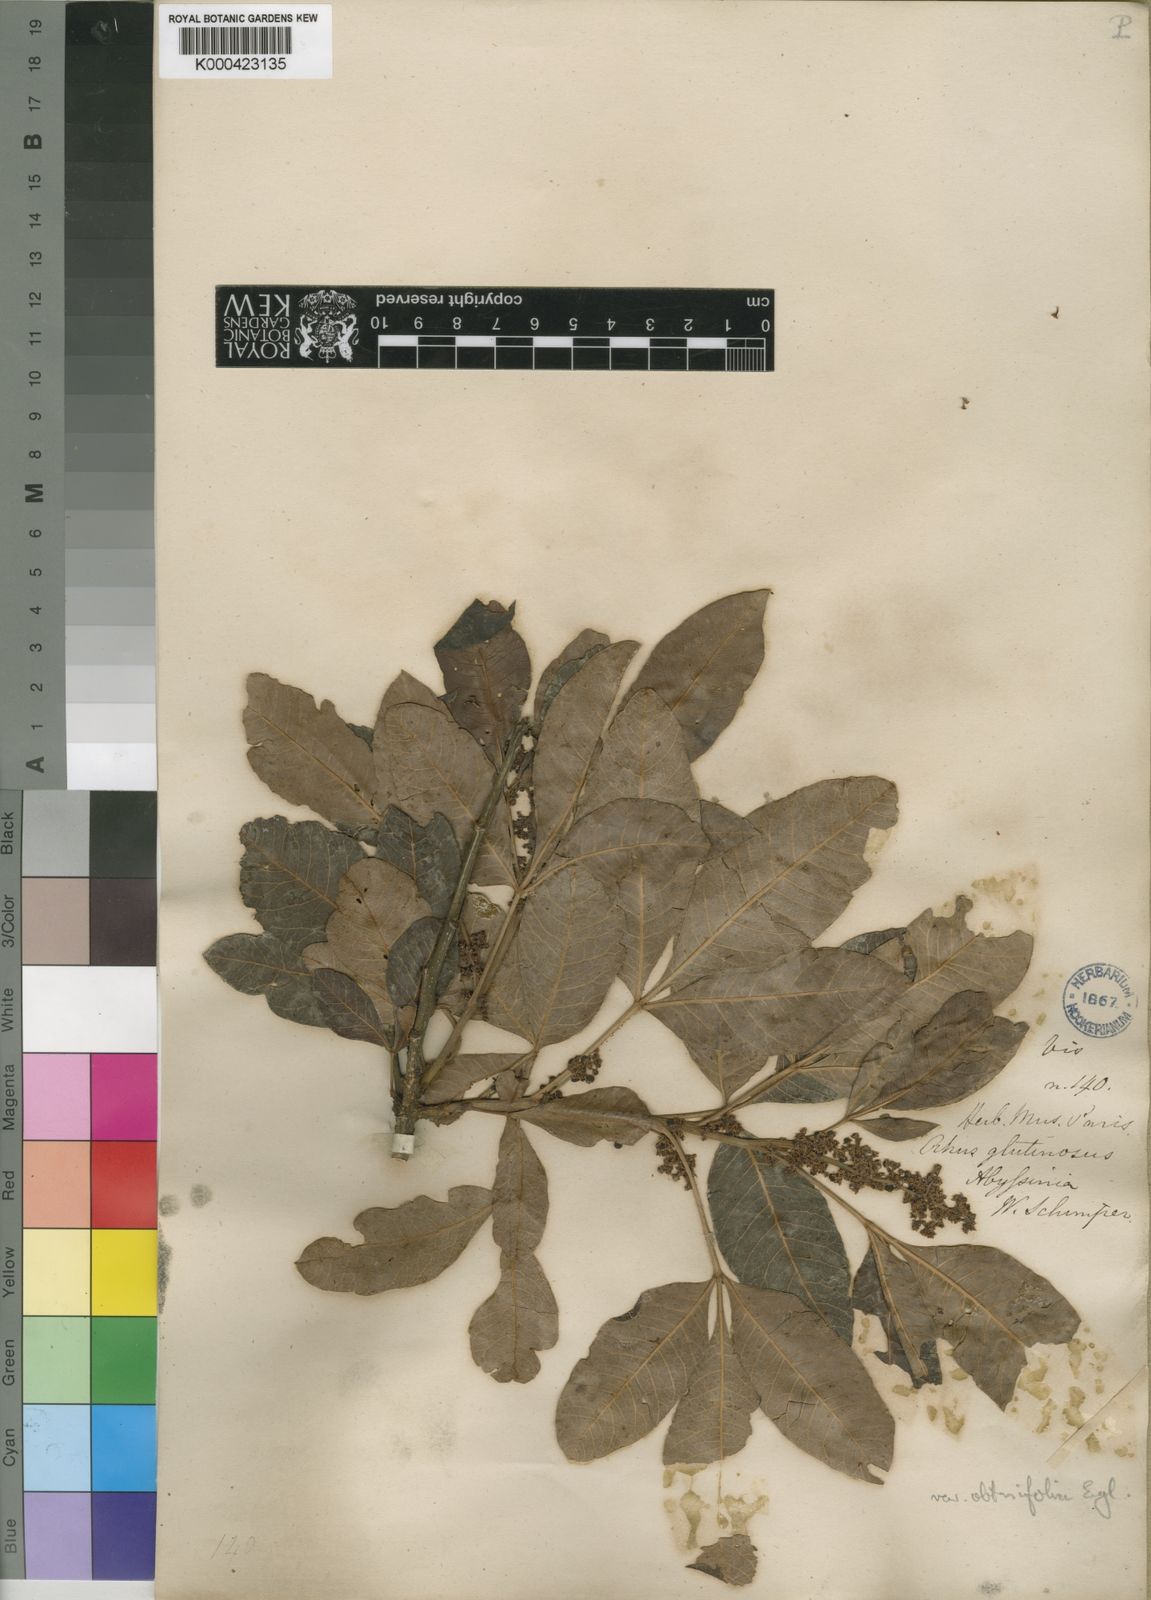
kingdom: Plantae
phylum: Tracheophyta
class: Magnoliopsida
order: Sapindales
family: Anacardiaceae
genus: Searsia
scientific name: Searsia glutinosa
